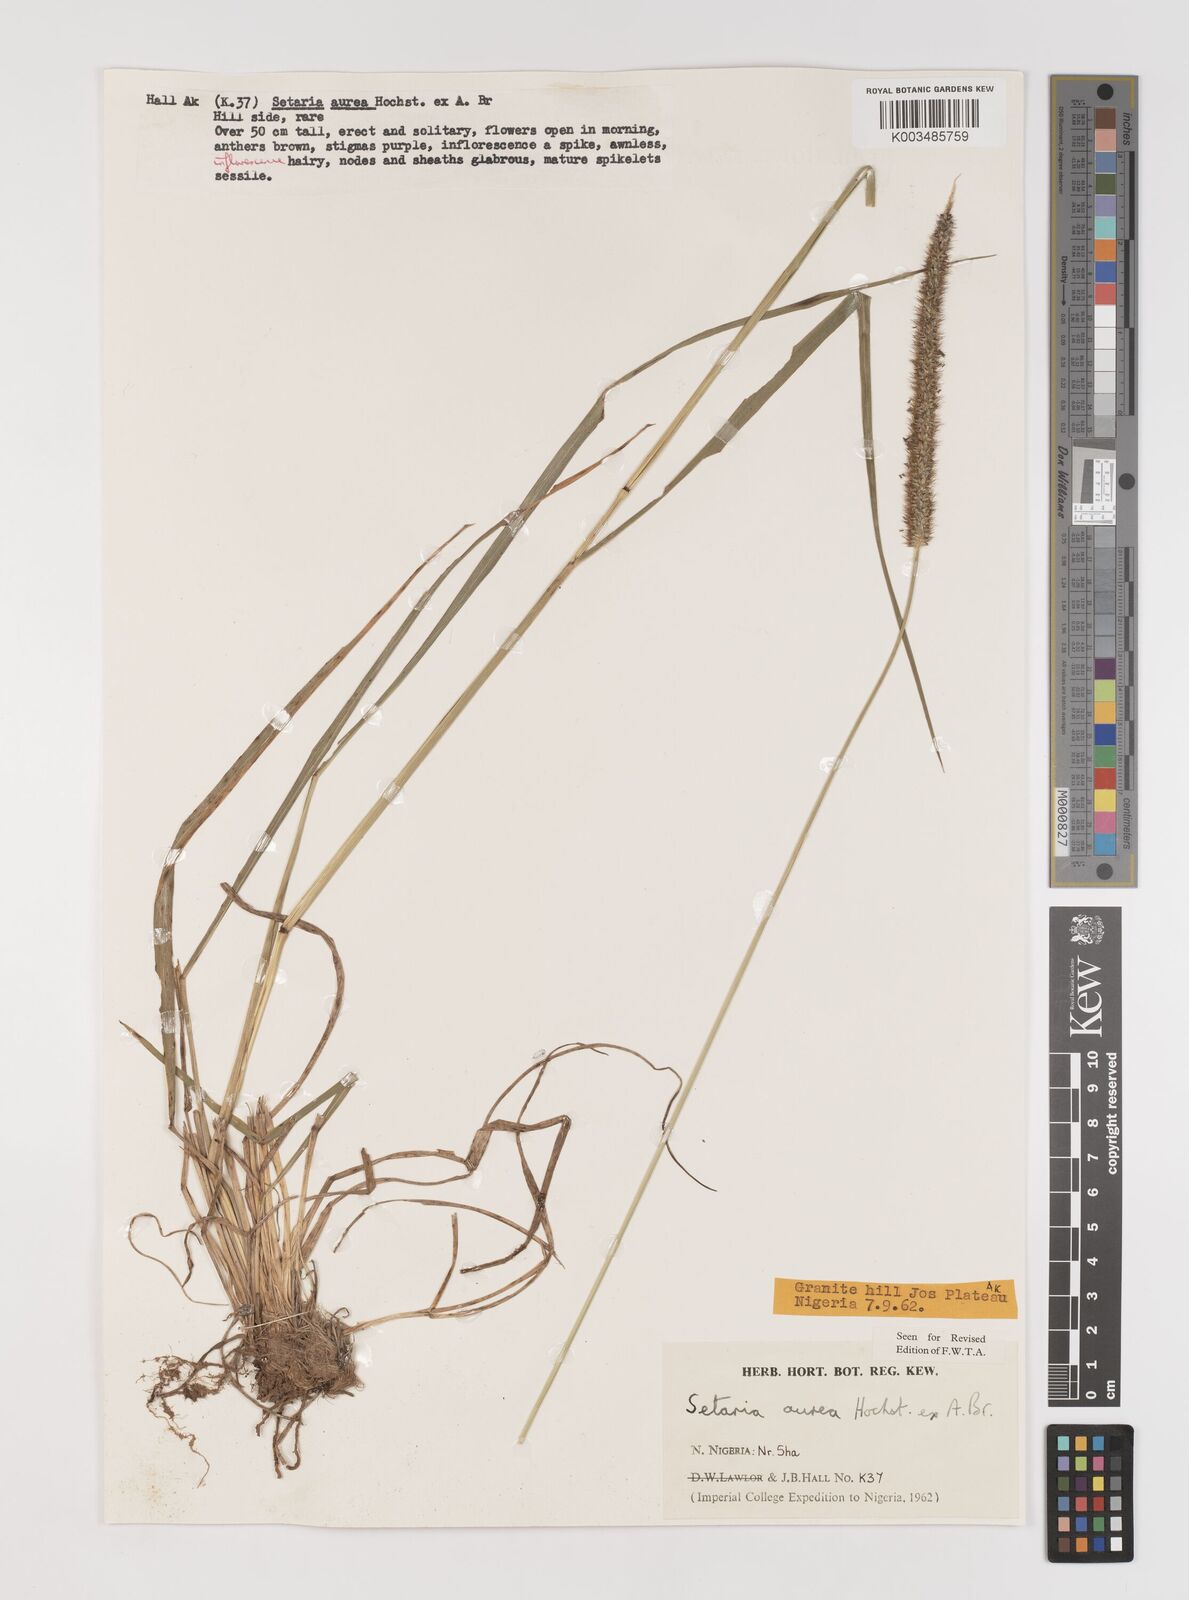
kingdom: Plantae
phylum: Tracheophyta
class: Liliopsida
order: Poales
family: Poaceae
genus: Setaria
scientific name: Setaria sphacelata
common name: African bristlegrass
